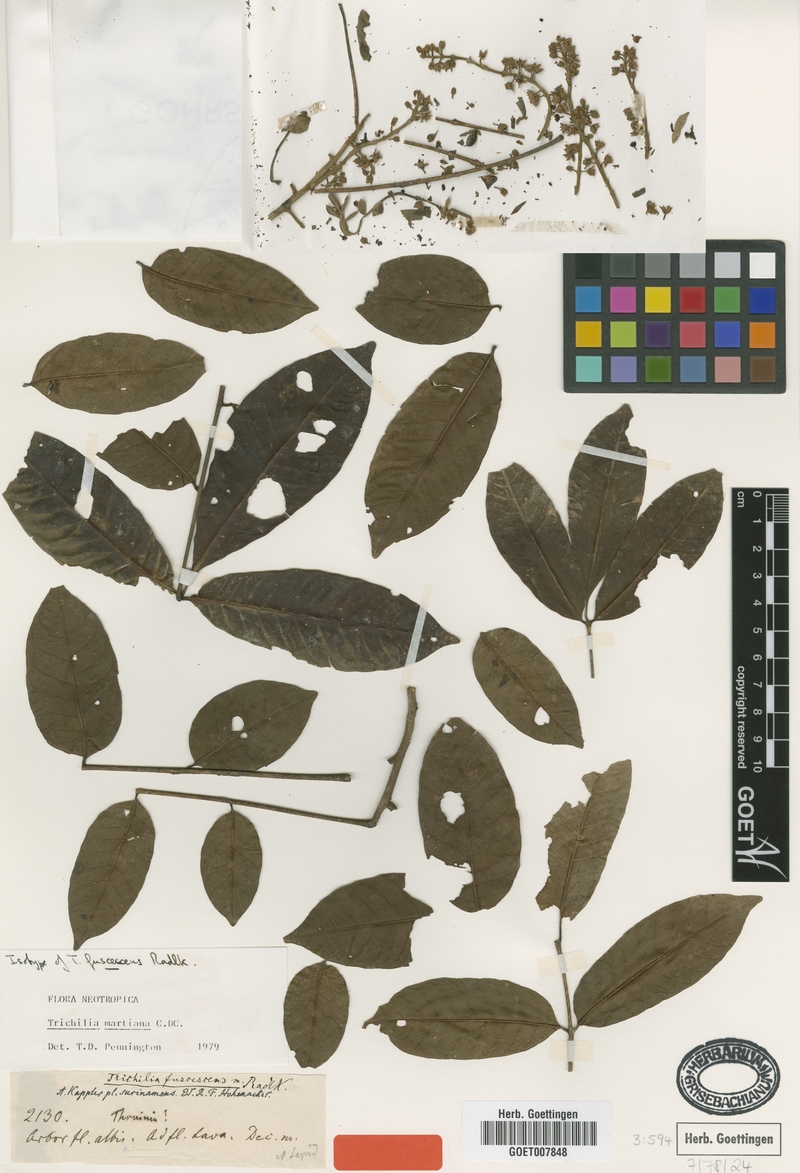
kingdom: Plantae
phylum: Tracheophyta
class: Magnoliopsida
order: Sapindales
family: Meliaceae
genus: Trichilia
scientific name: Trichilia martiana
